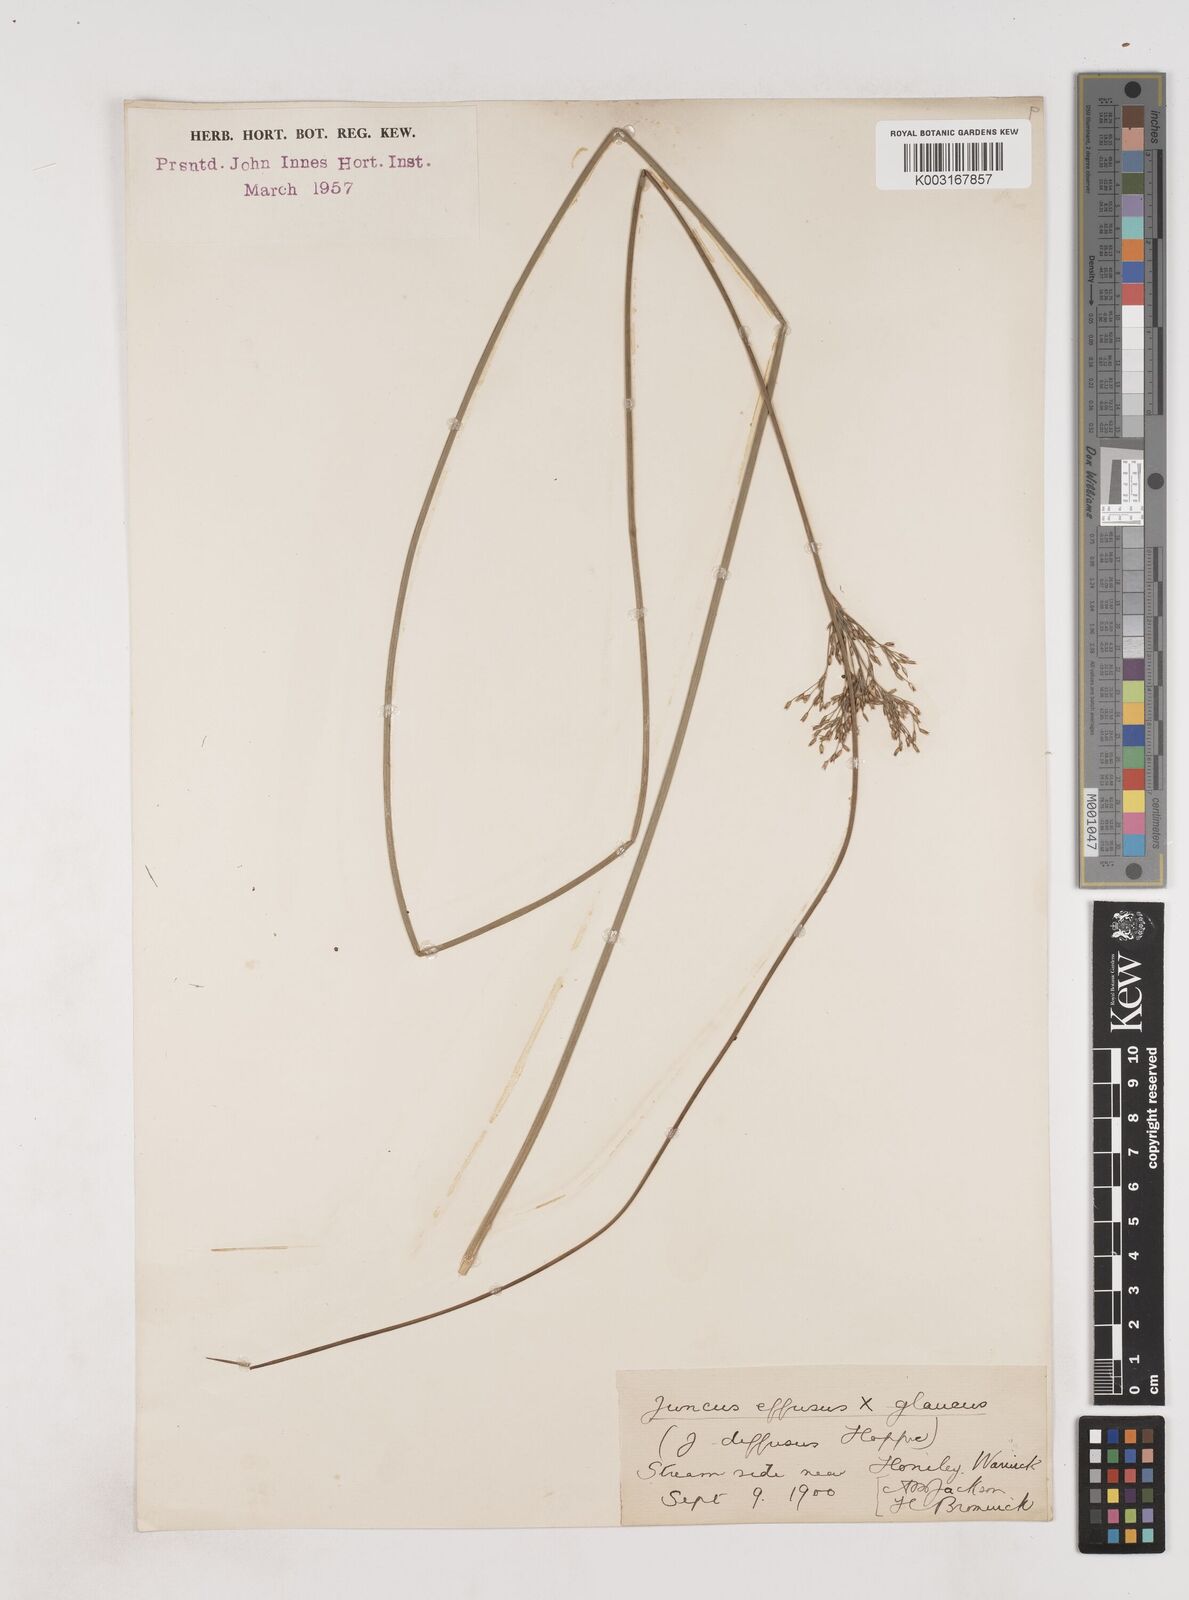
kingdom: Plantae
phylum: Tracheophyta
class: Liliopsida
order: Poales
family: Juncaceae
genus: Juncus
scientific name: Juncus effusus
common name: Soft rush
